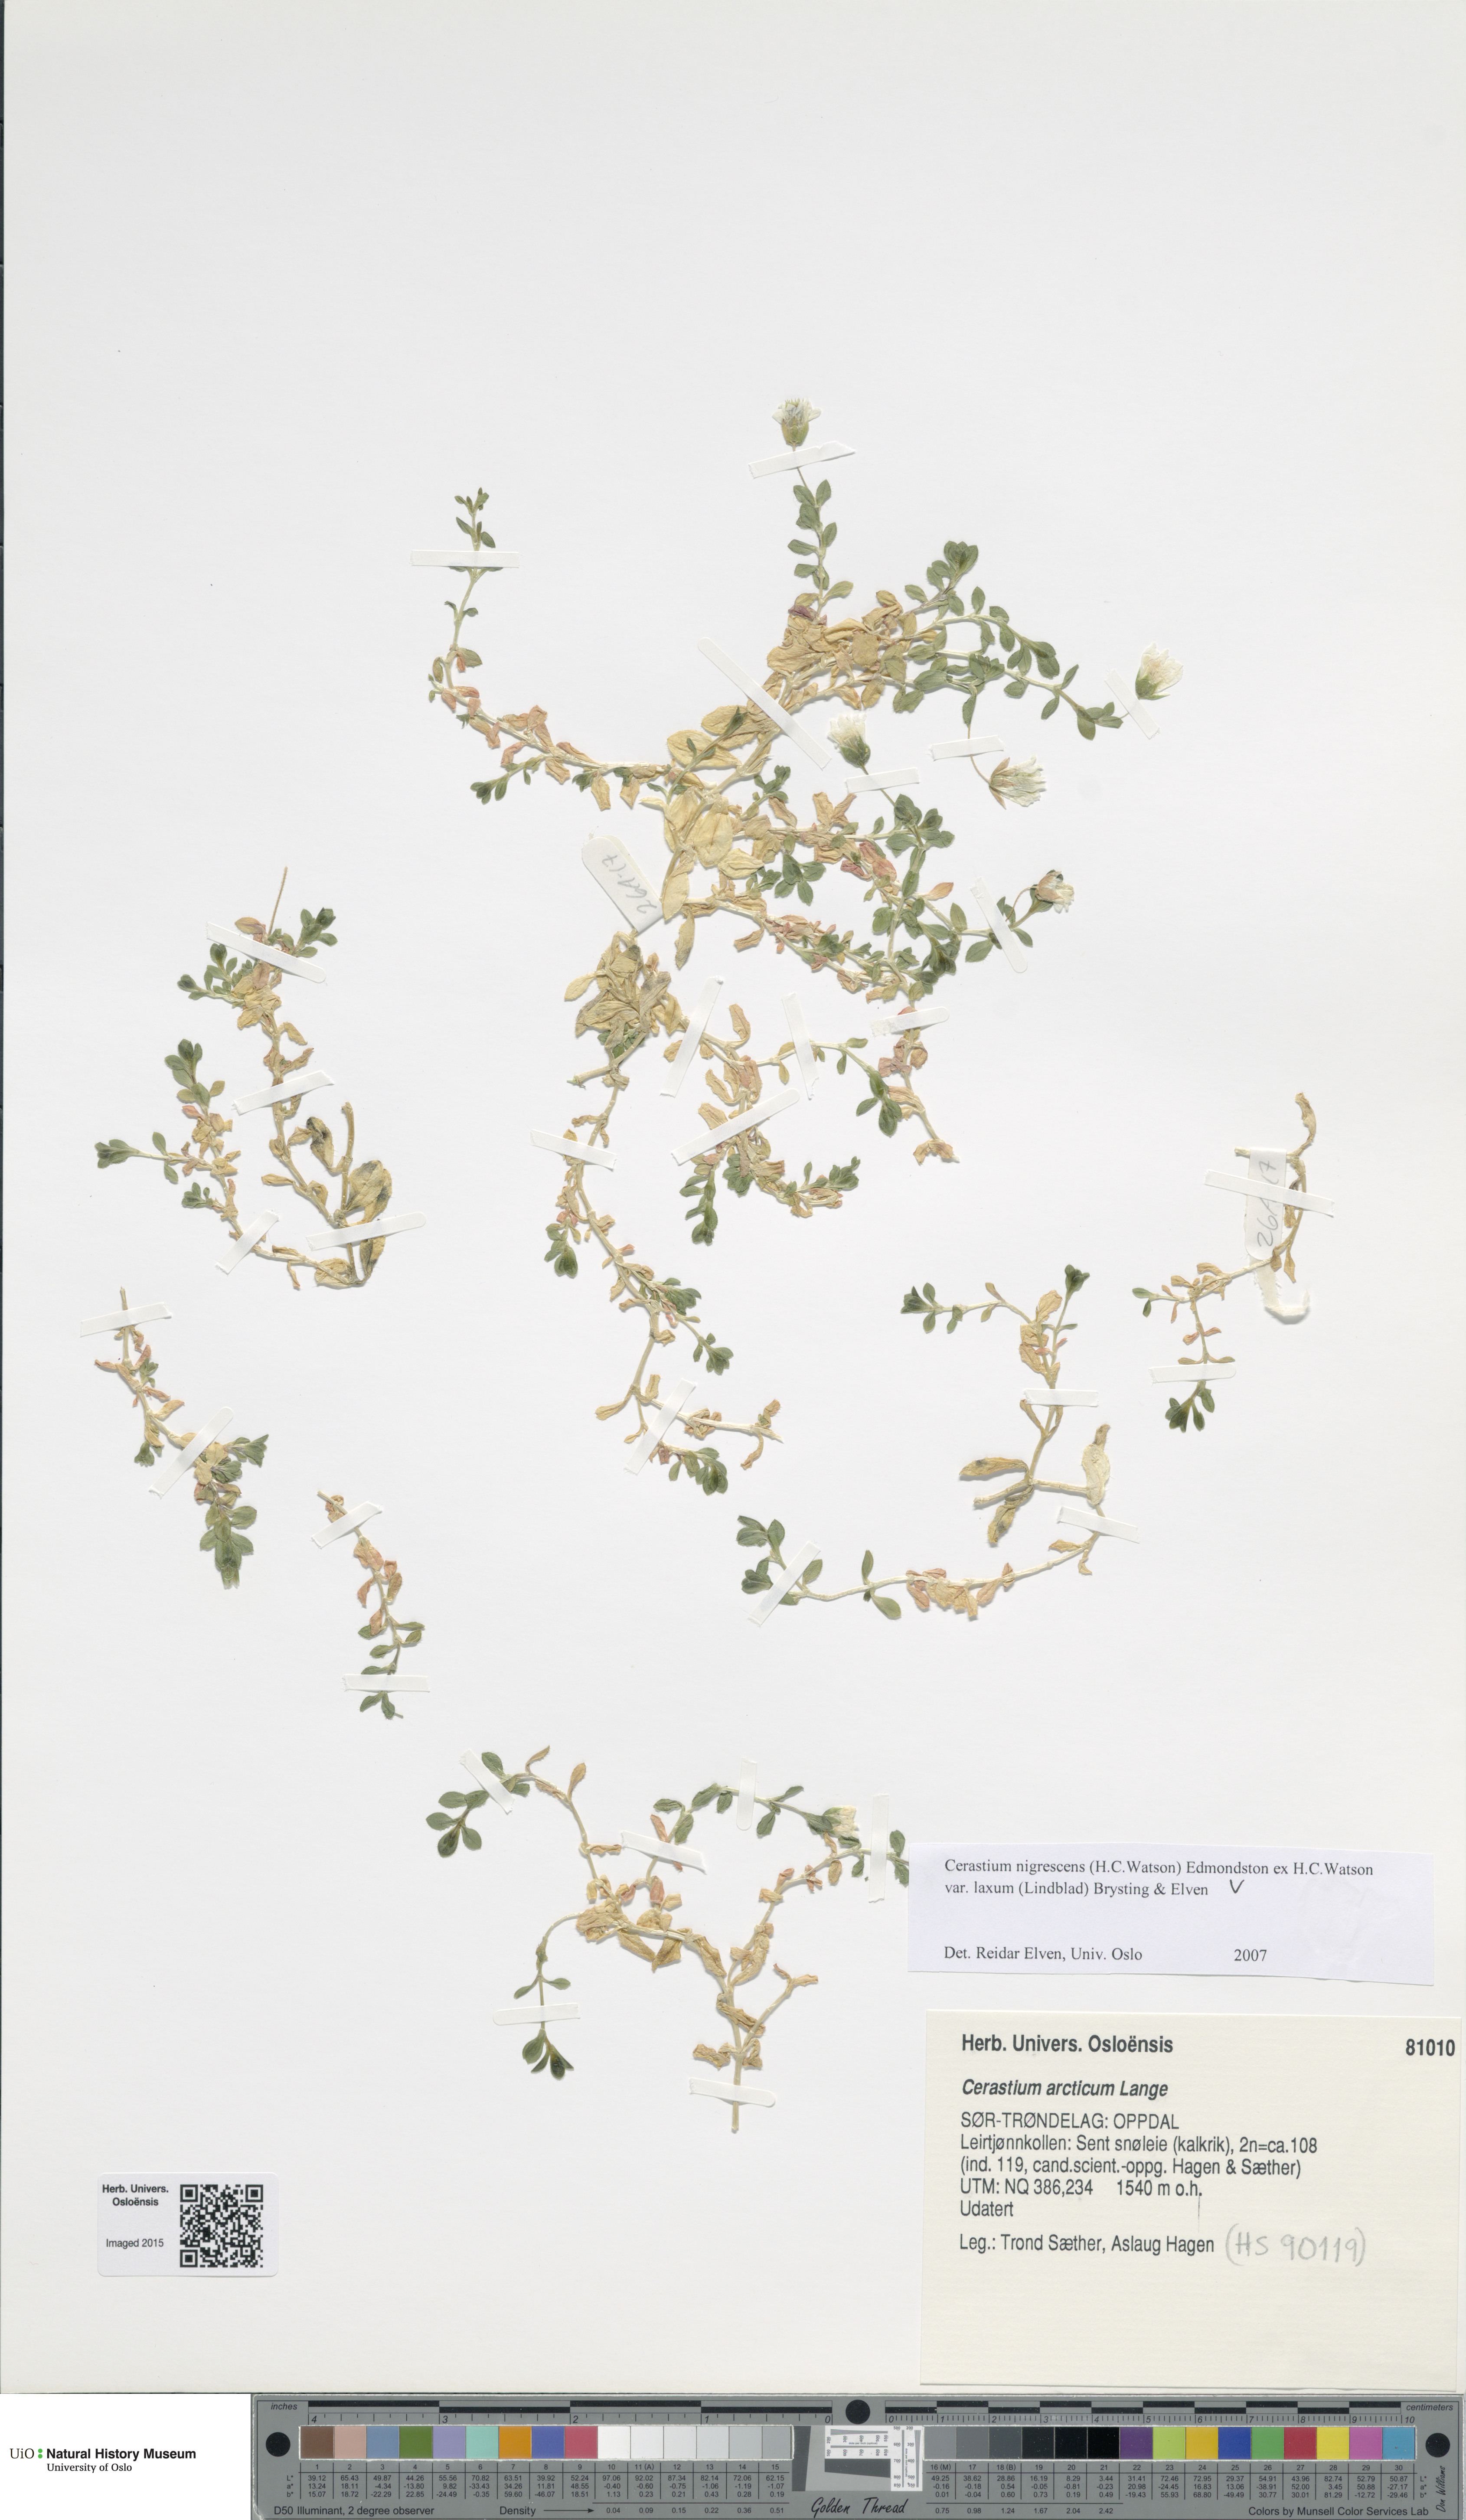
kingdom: Plantae
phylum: Tracheophyta
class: Magnoliopsida
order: Caryophyllales
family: Caryophyllaceae
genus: Cerastium
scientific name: Cerastium nigrescens
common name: Shetland mouse-ear
